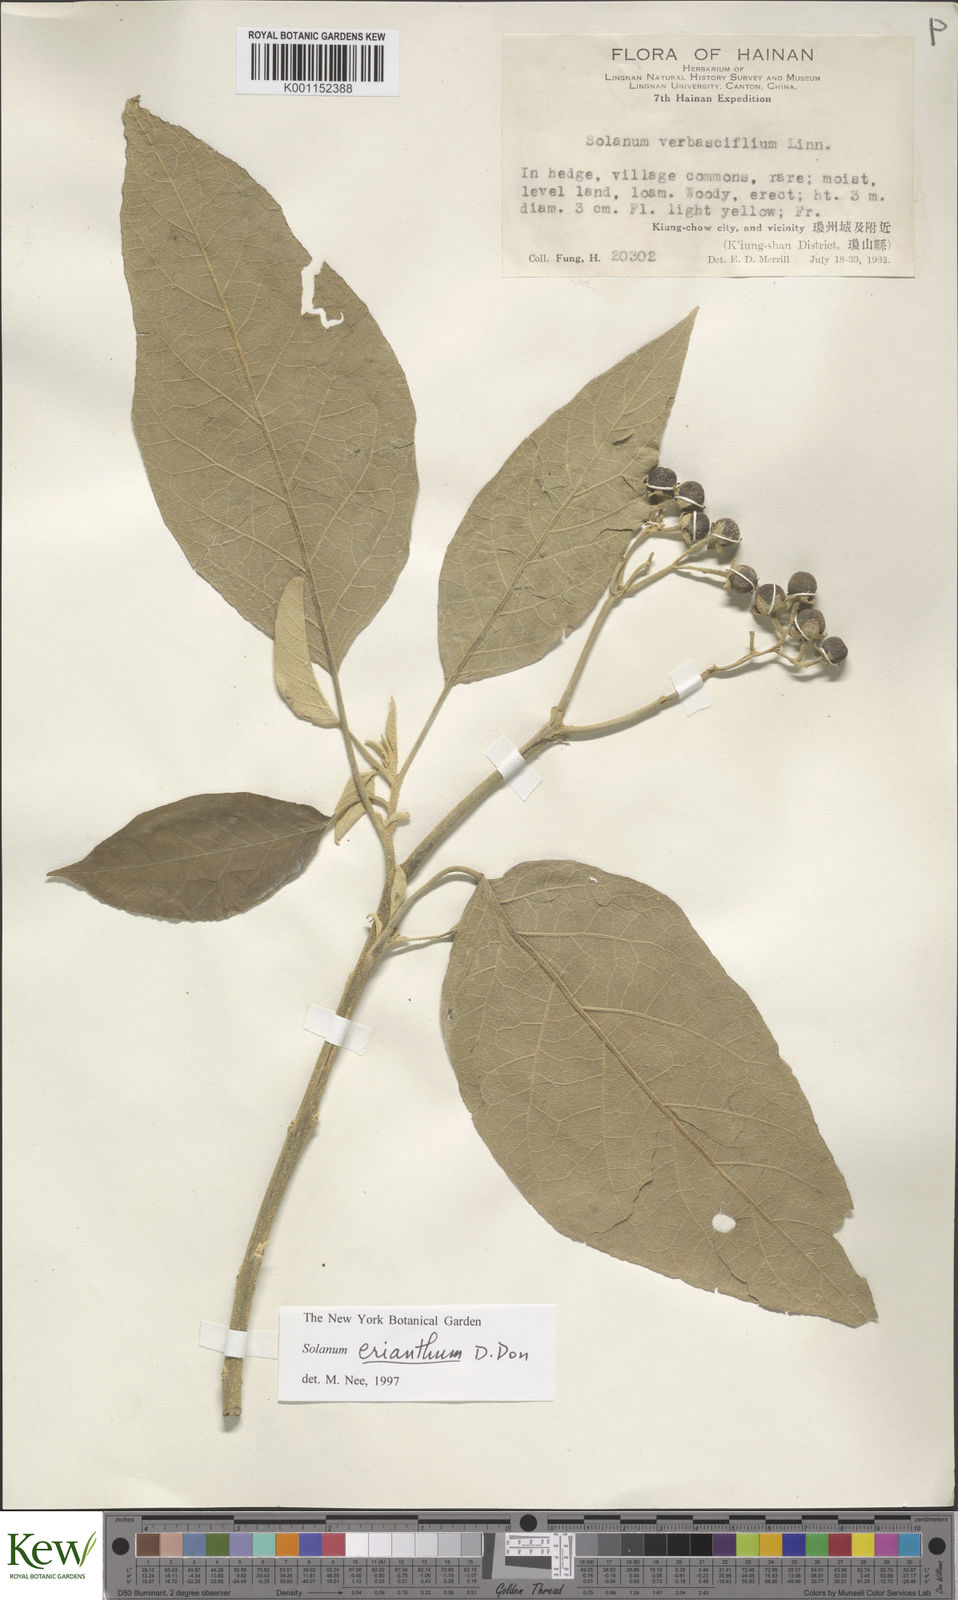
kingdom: Plantae
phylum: Tracheophyta
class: Magnoliopsida
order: Solanales
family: Solanaceae
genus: Solanum
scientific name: Solanum donianum
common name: Mullein nightshade
